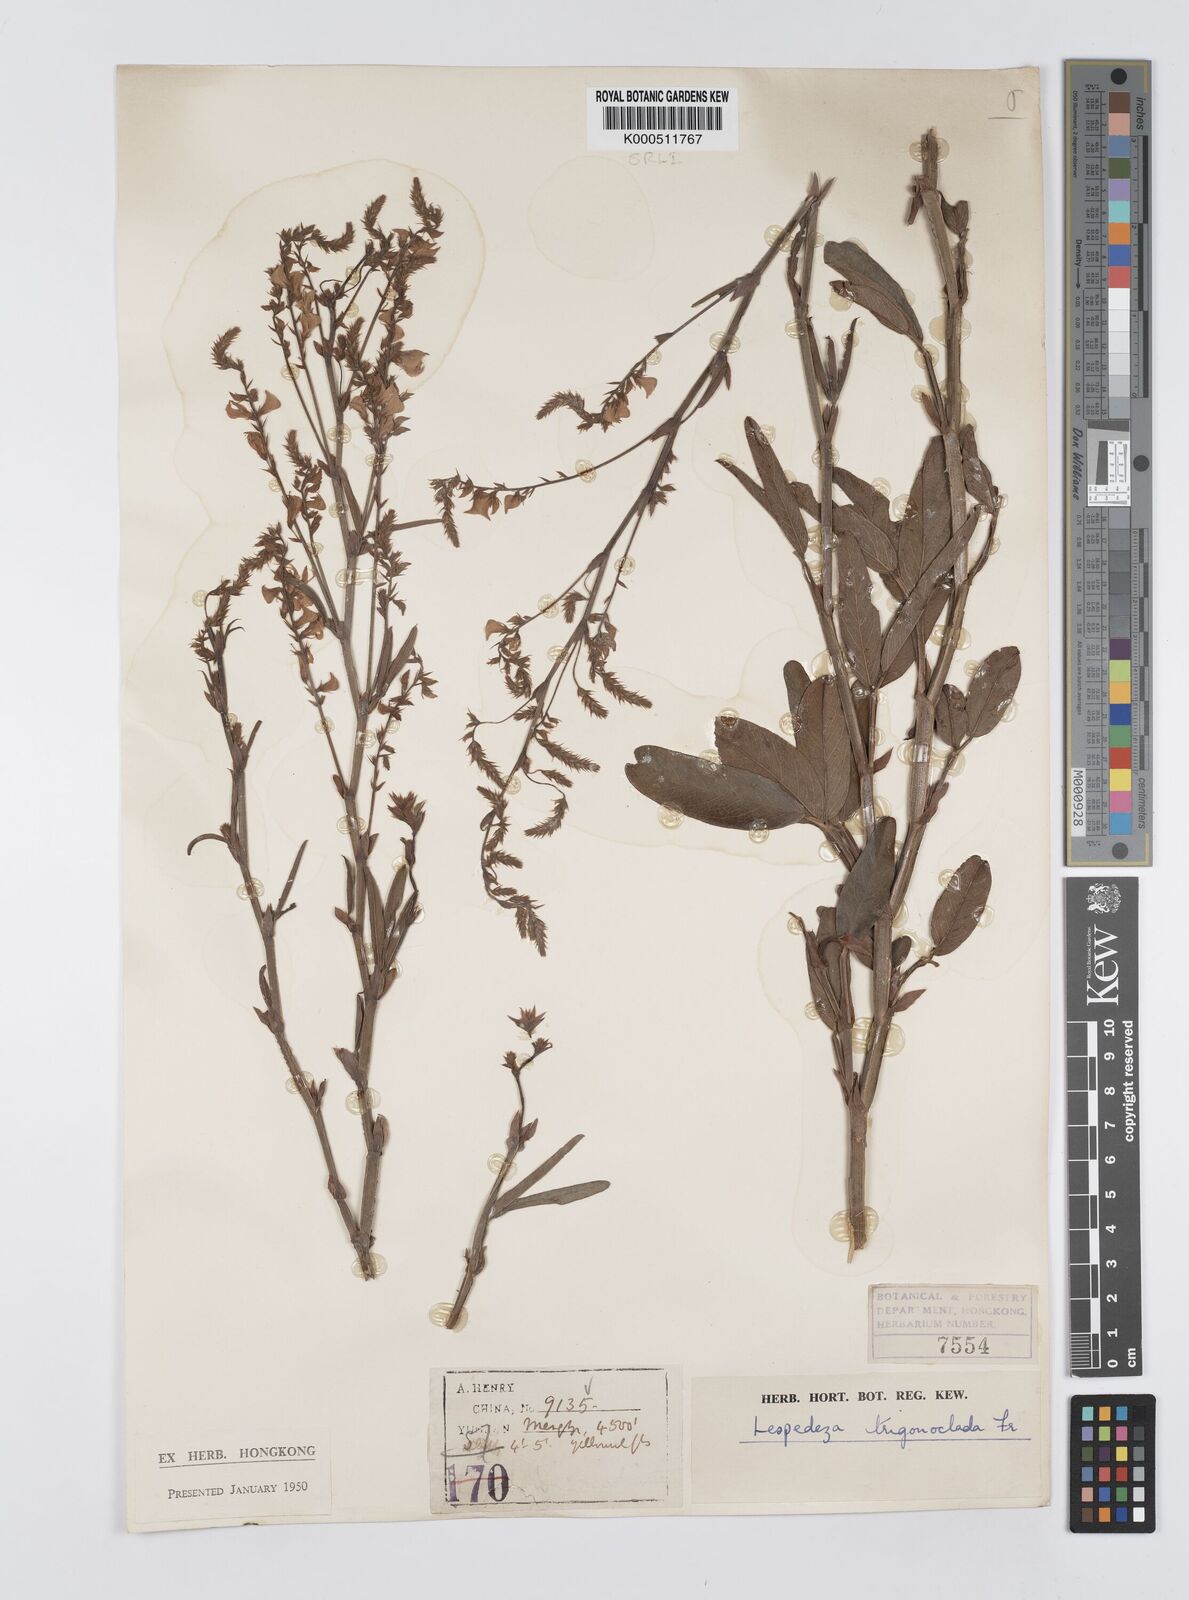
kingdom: Plantae
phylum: Tracheophyta
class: Magnoliopsida
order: Fabales
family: Fabaceae
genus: Campylotropis
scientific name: Campylotropis trigonoclada
